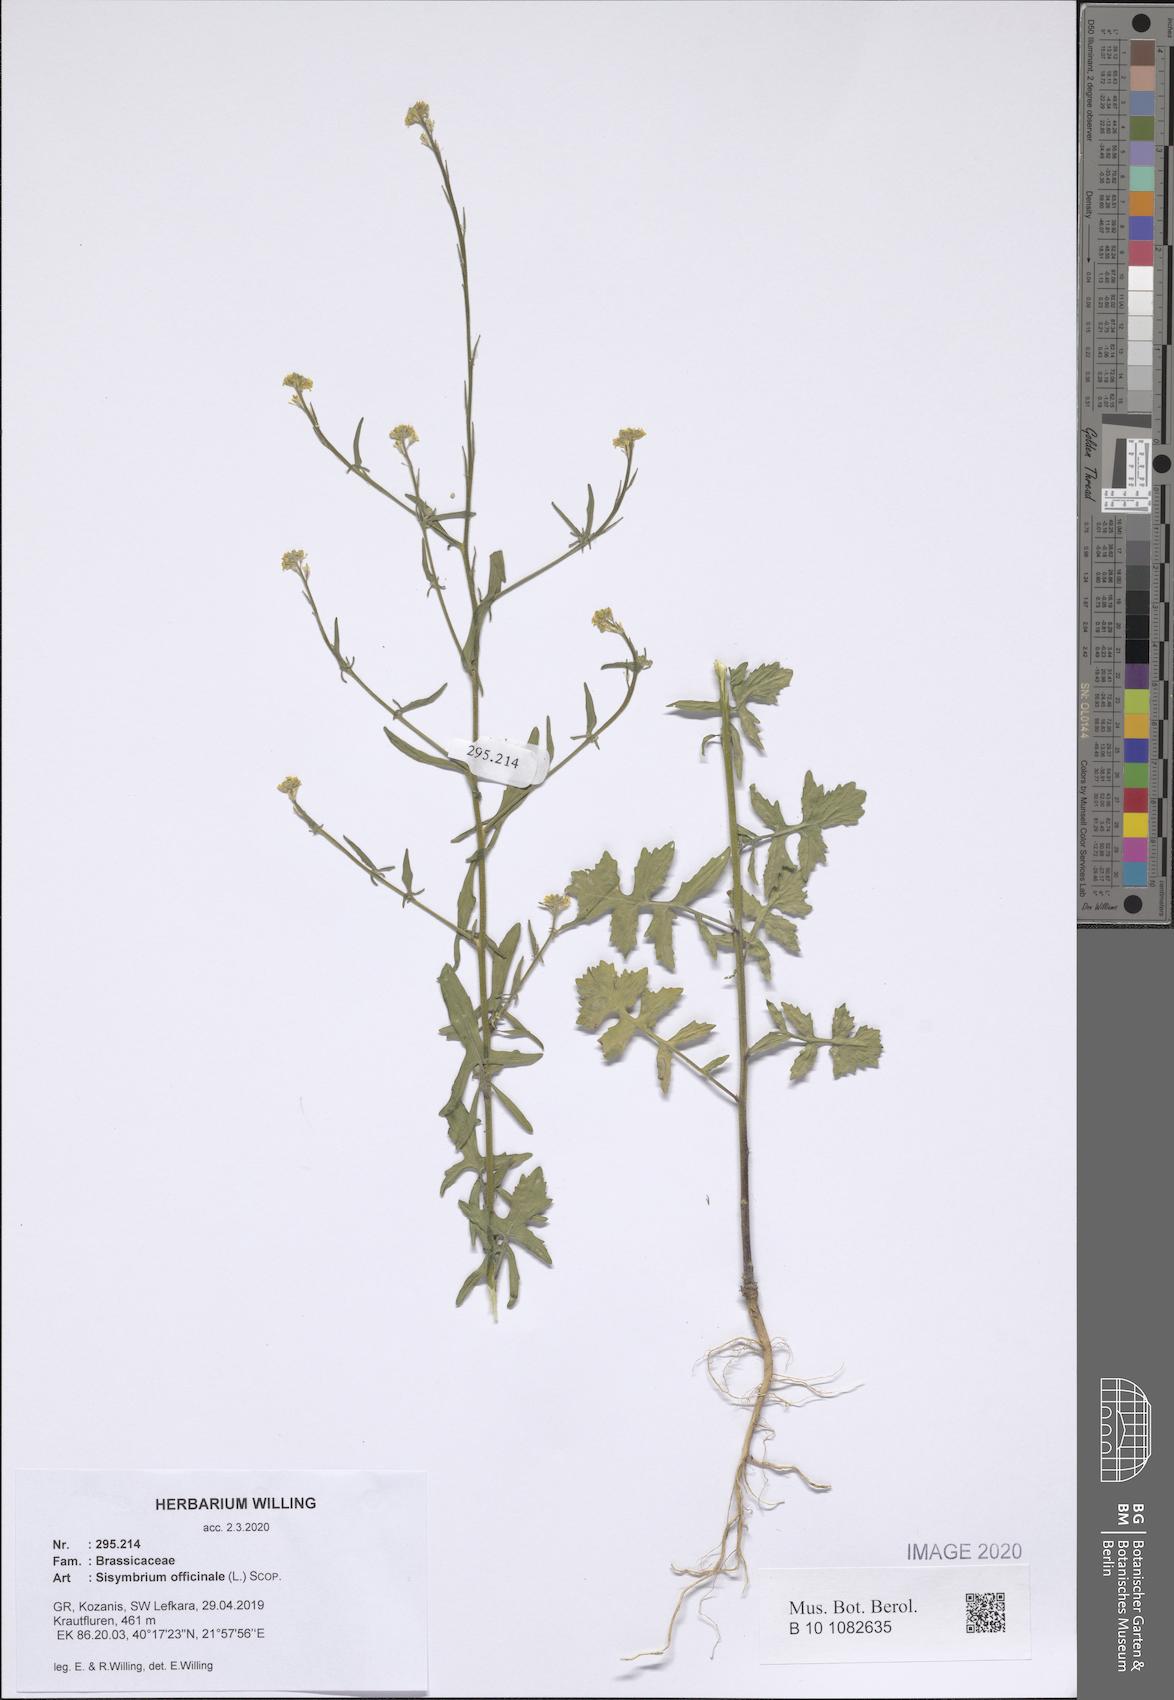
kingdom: Plantae
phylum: Tracheophyta
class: Magnoliopsida
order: Brassicales
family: Brassicaceae
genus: Sisymbrium
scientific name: Sisymbrium officinale
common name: Hedge mustard
